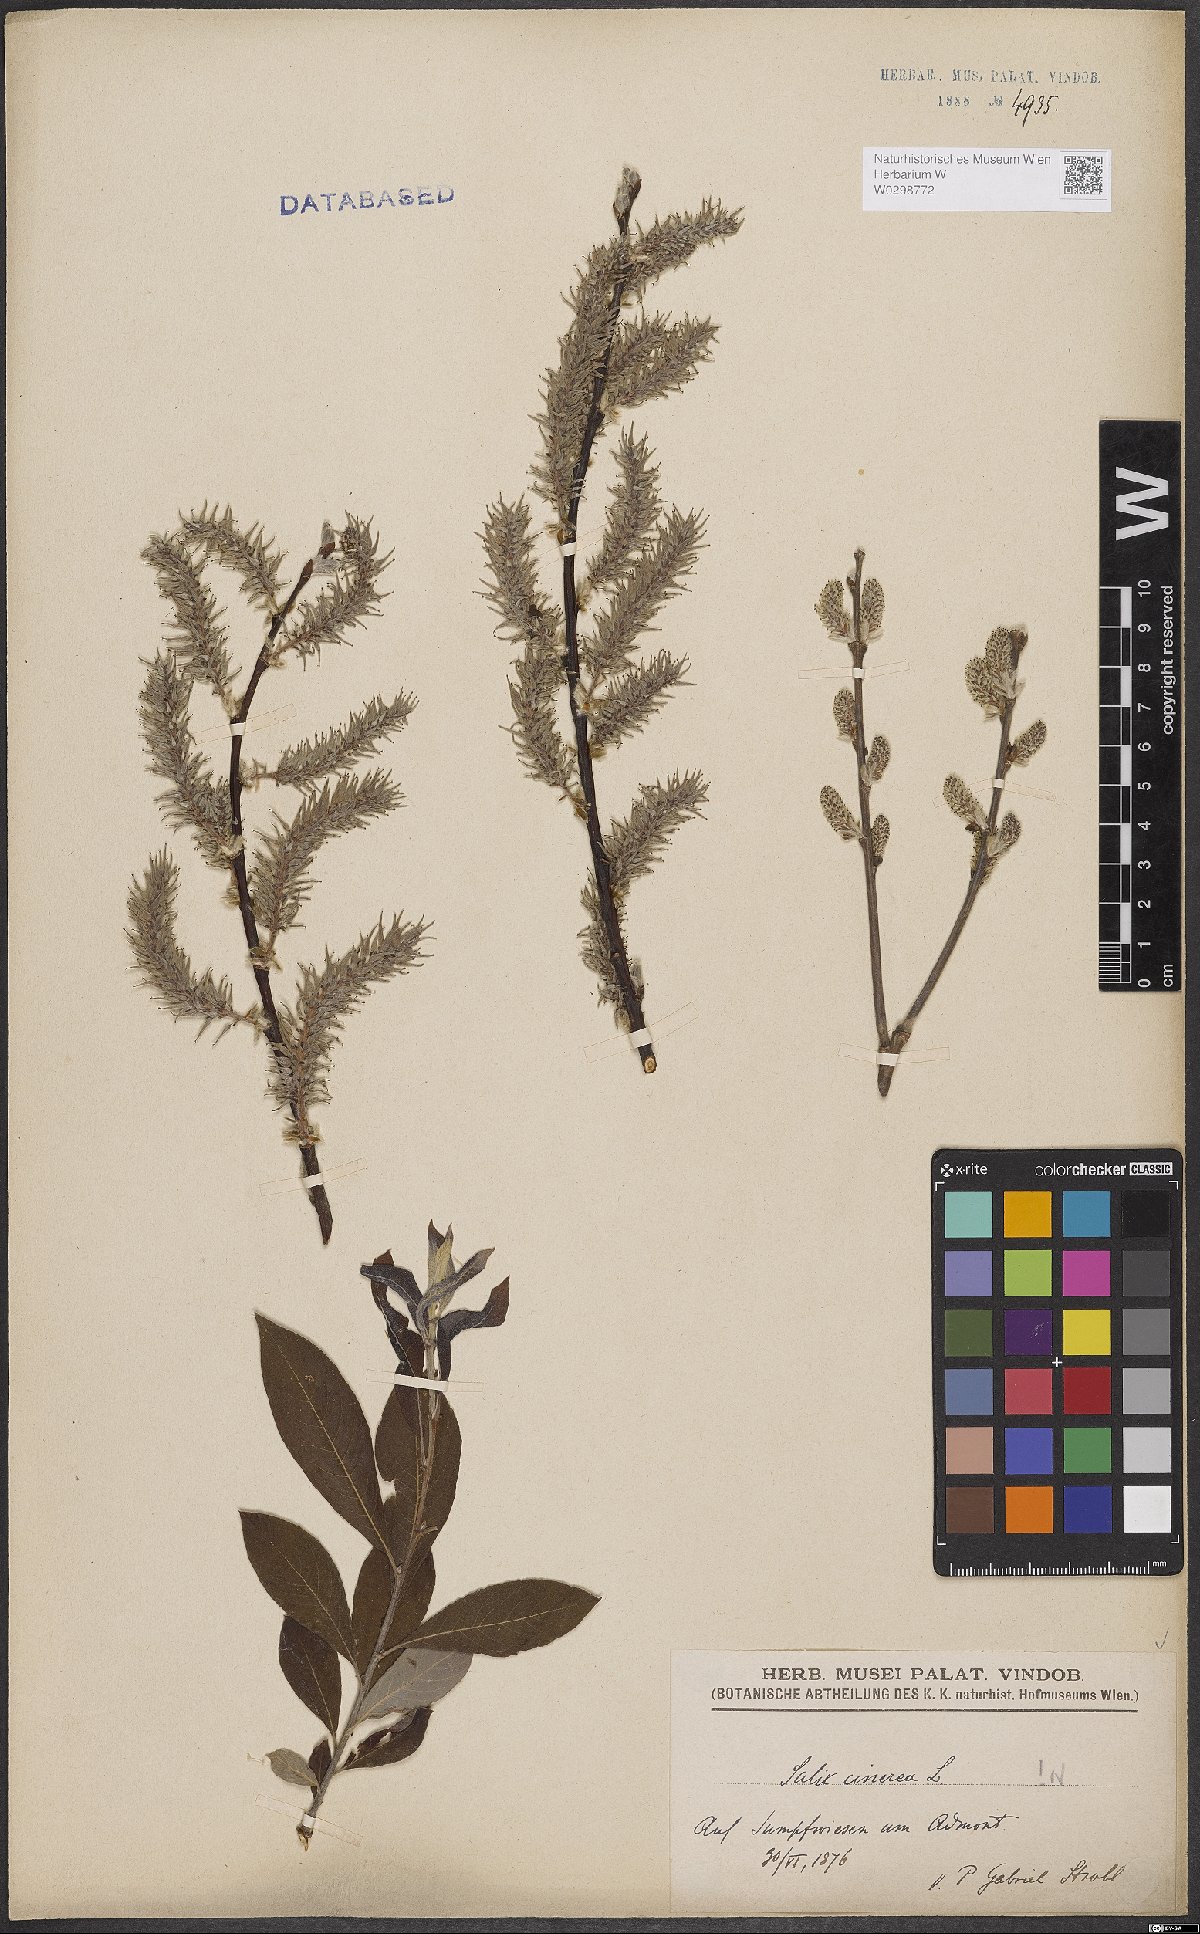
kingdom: Plantae
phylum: Tracheophyta
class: Magnoliopsida
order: Malpighiales
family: Salicaceae
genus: Salix
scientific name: Salix cinerea
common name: Common sallow
